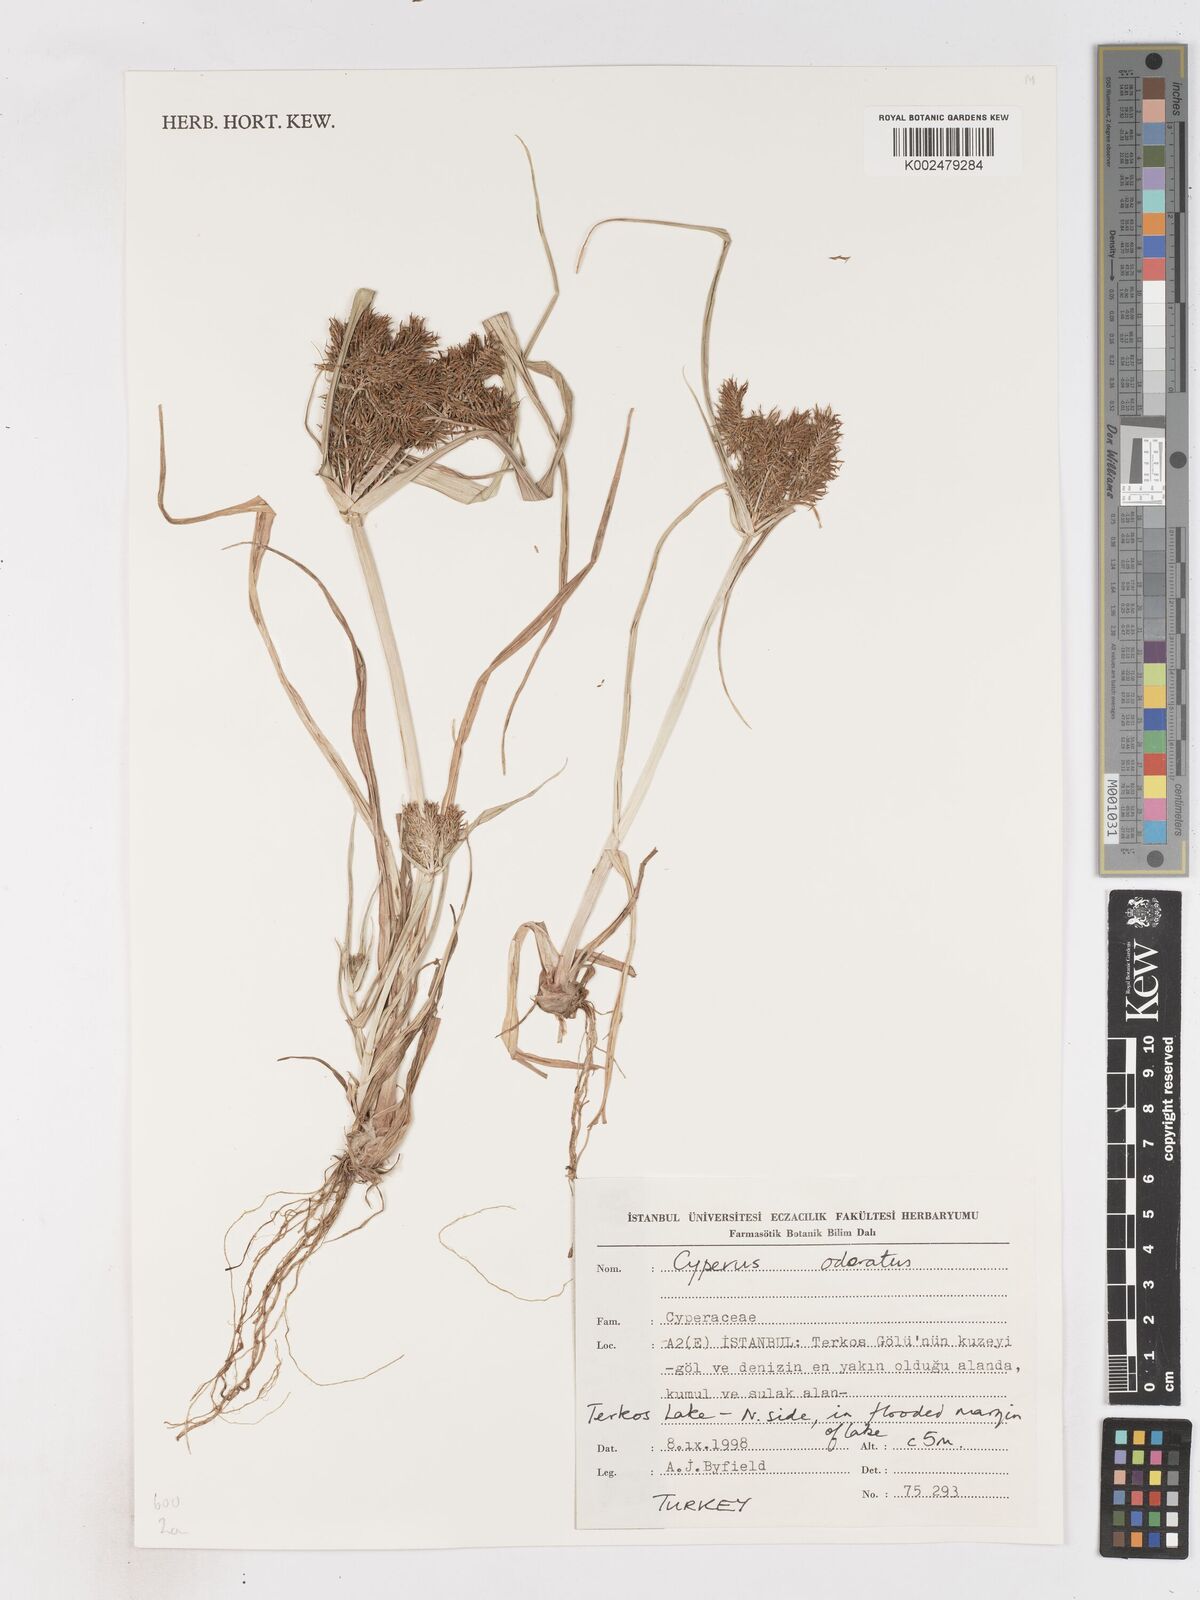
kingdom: Plantae
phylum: Tracheophyta
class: Liliopsida
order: Poales
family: Cyperaceae
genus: Cyperus
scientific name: Cyperus odoratus
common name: Fragrant flatsedge
